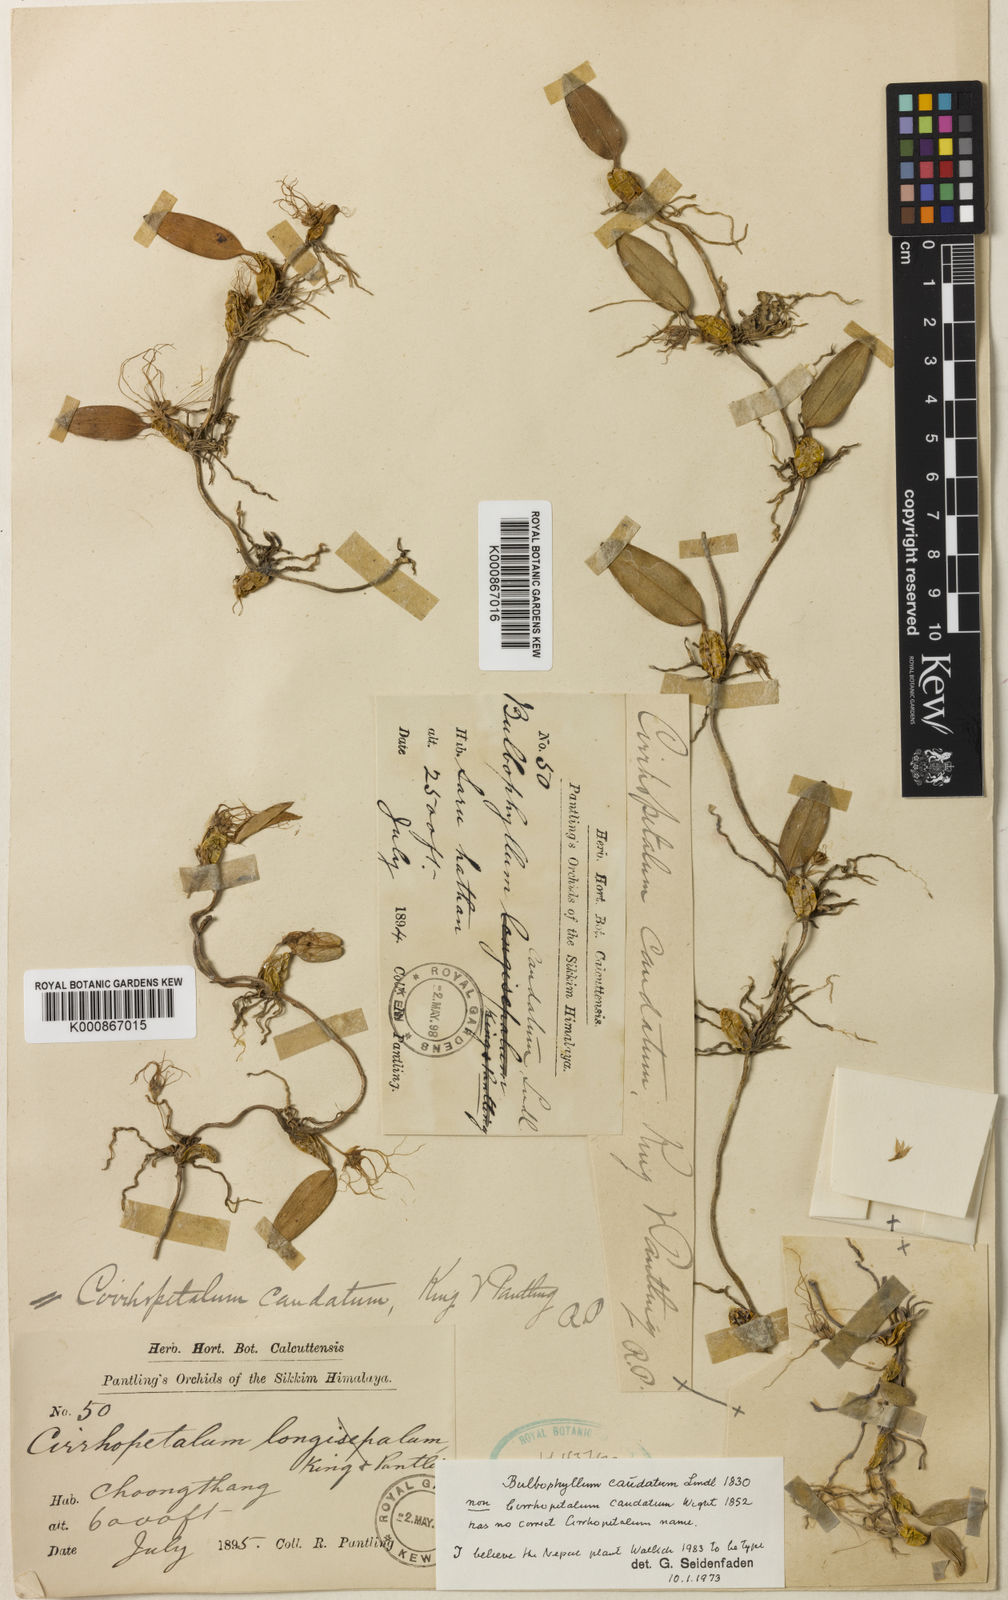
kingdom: Plantae
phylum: Tracheophyta
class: Liliopsida
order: Asparagales
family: Orchidaceae
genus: Bulbophyllum
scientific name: Bulbophyllum caudatum
